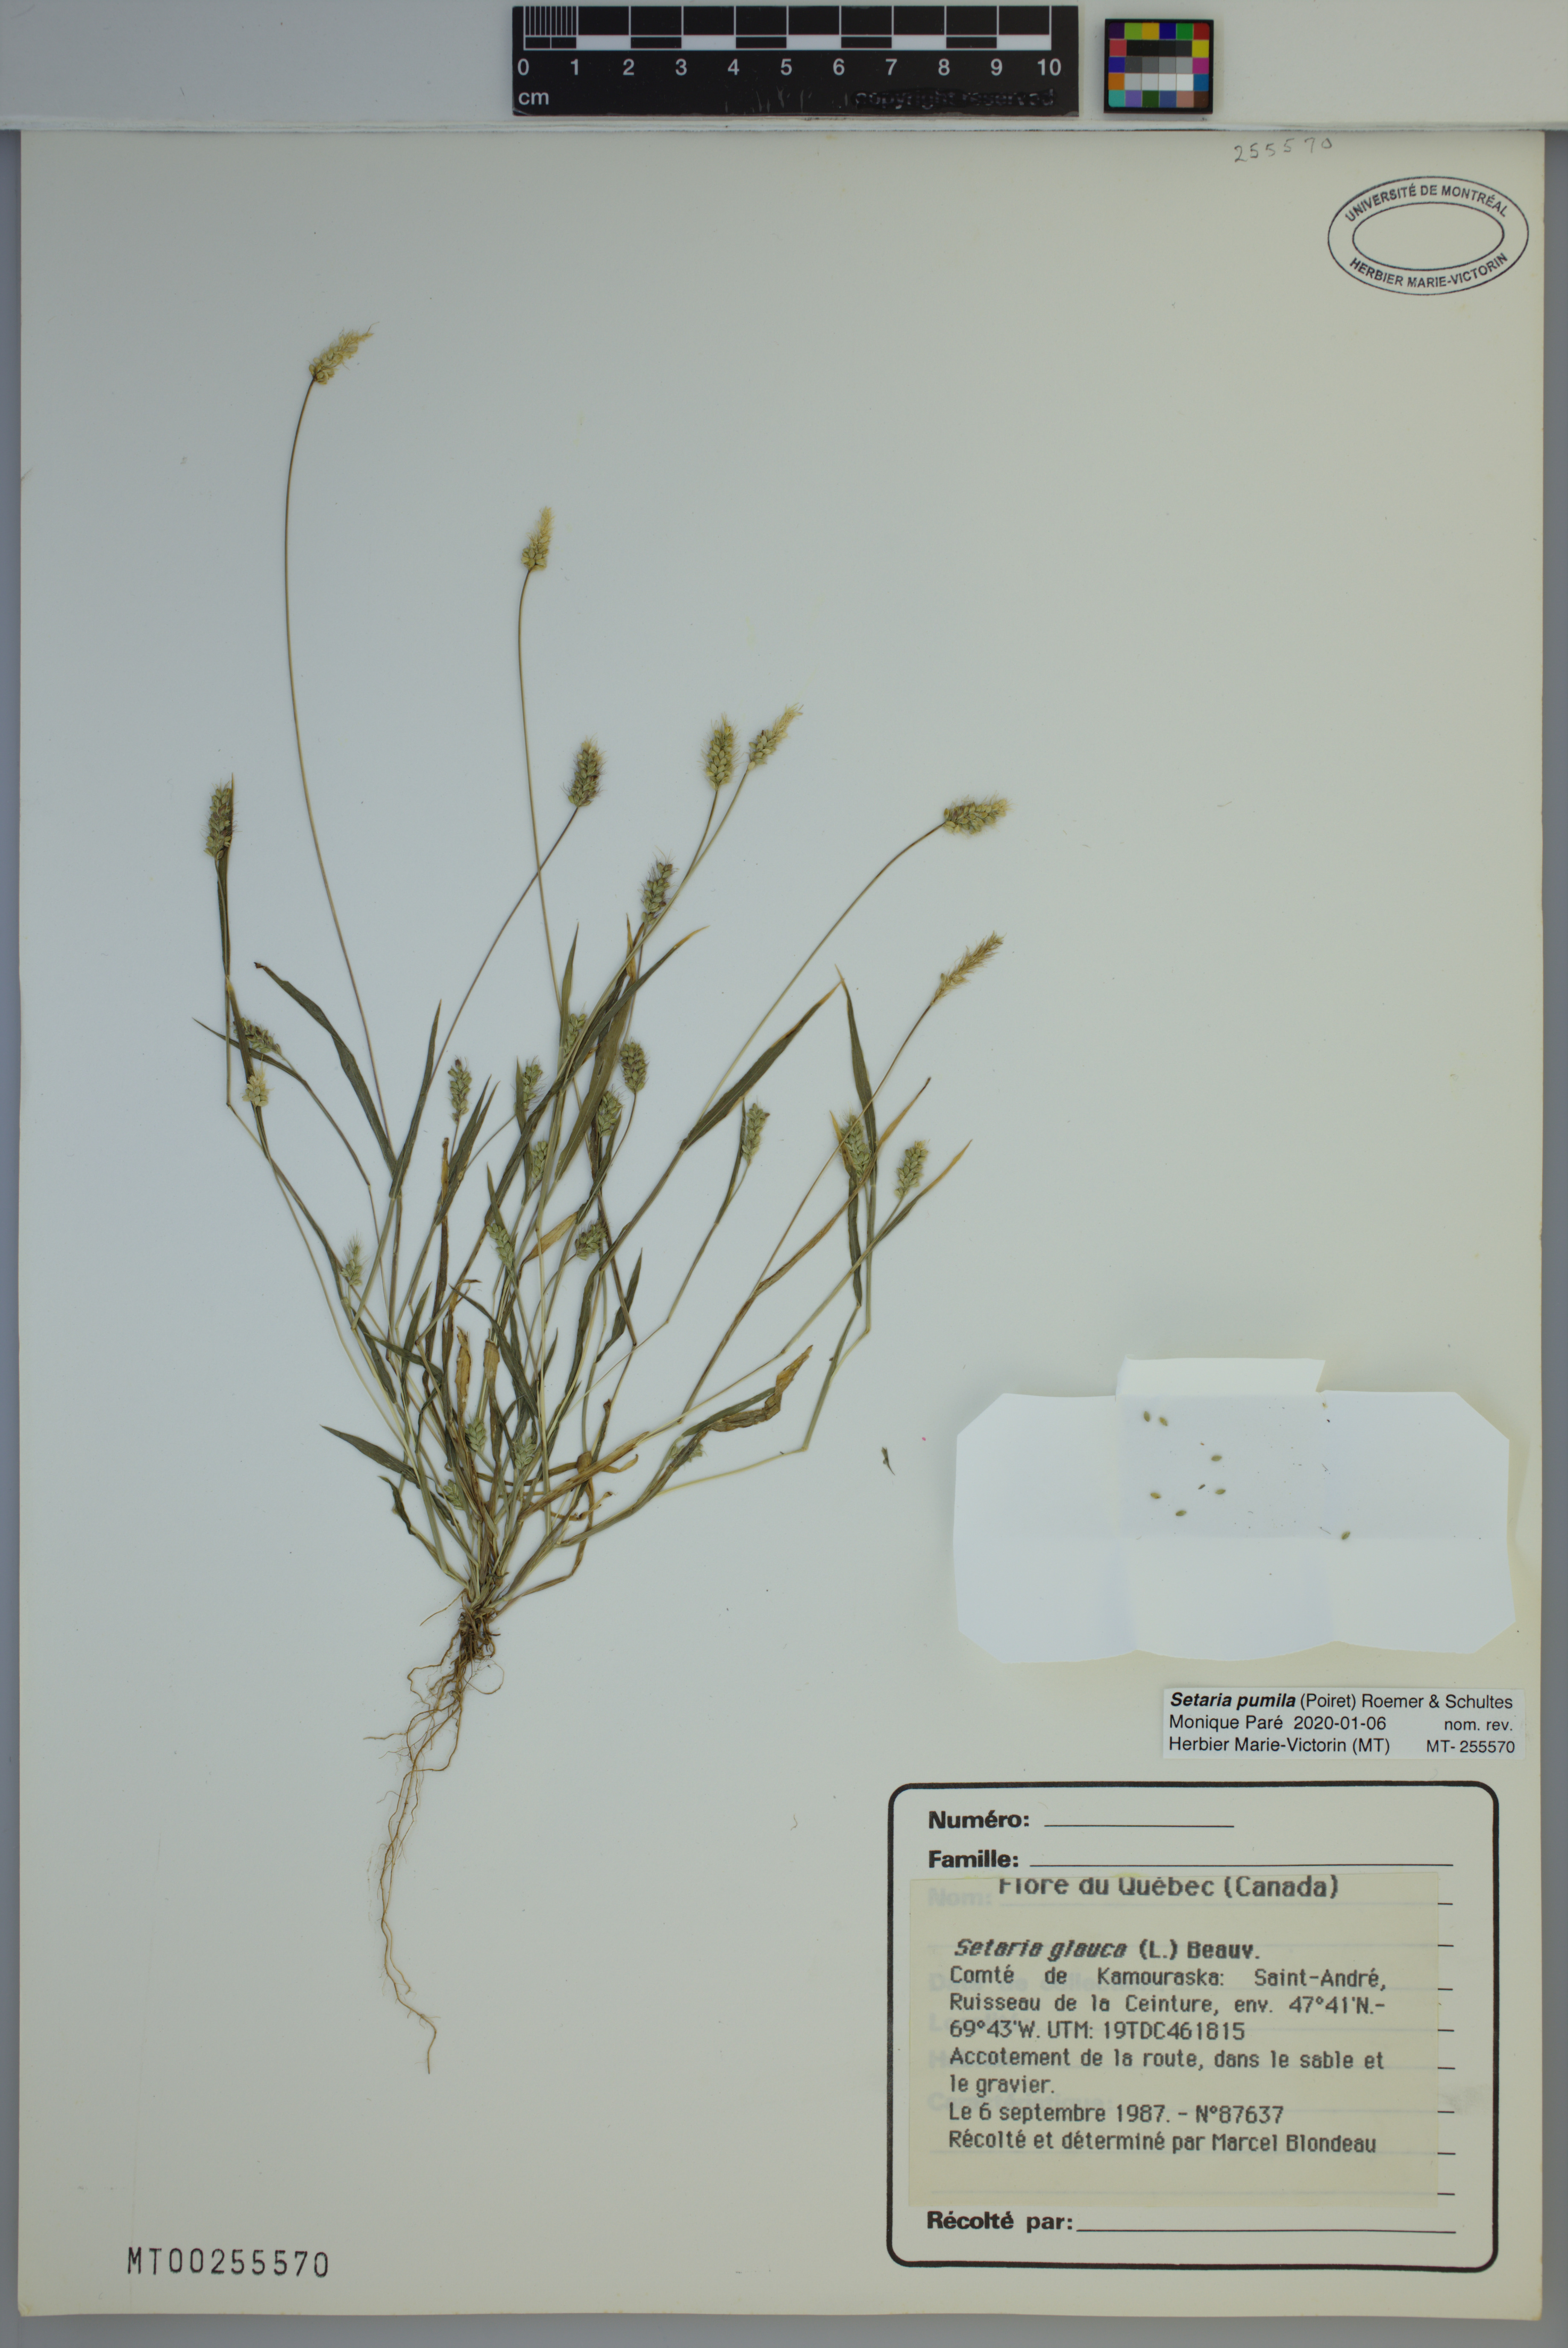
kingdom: Plantae
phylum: Tracheophyta
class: Liliopsida
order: Poales
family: Poaceae
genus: Setaria
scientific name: Setaria pumila
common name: Yellow bristle-grass
